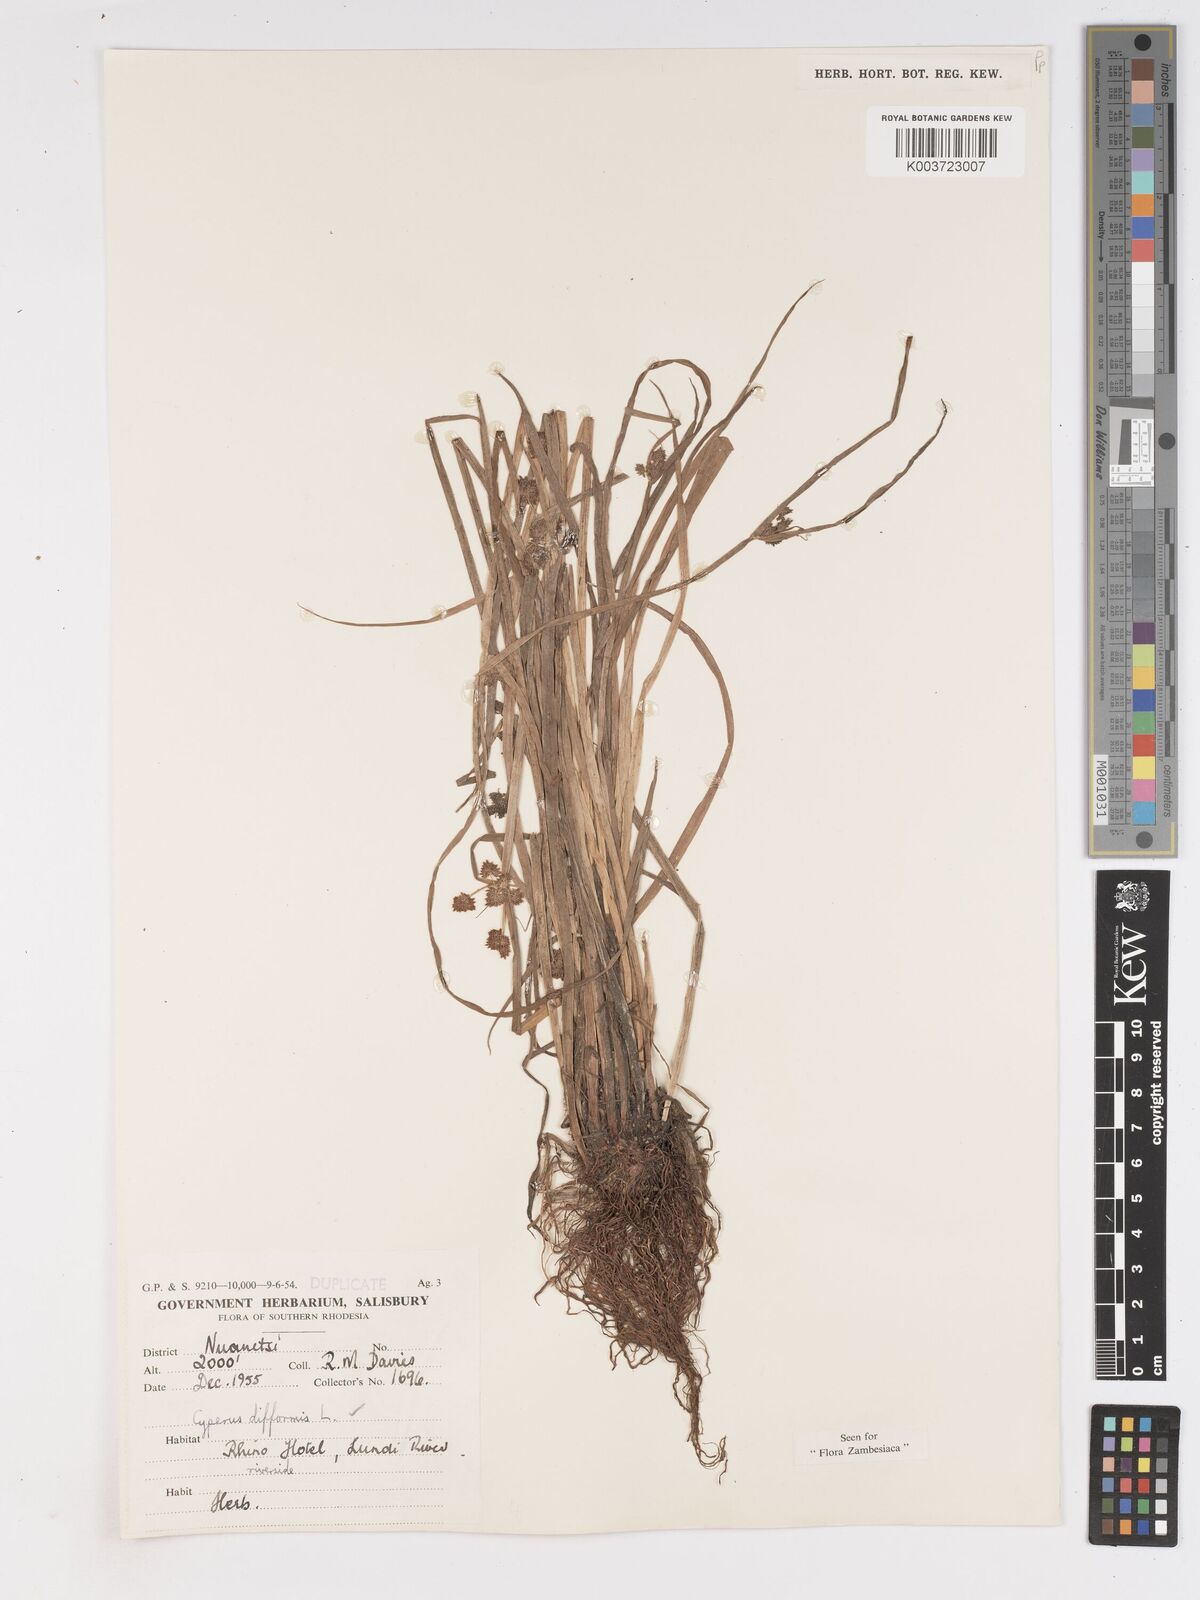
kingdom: Plantae
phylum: Tracheophyta
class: Liliopsida
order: Poales
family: Cyperaceae
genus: Cyperus
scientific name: Cyperus difformis
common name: Variable flatsedge
